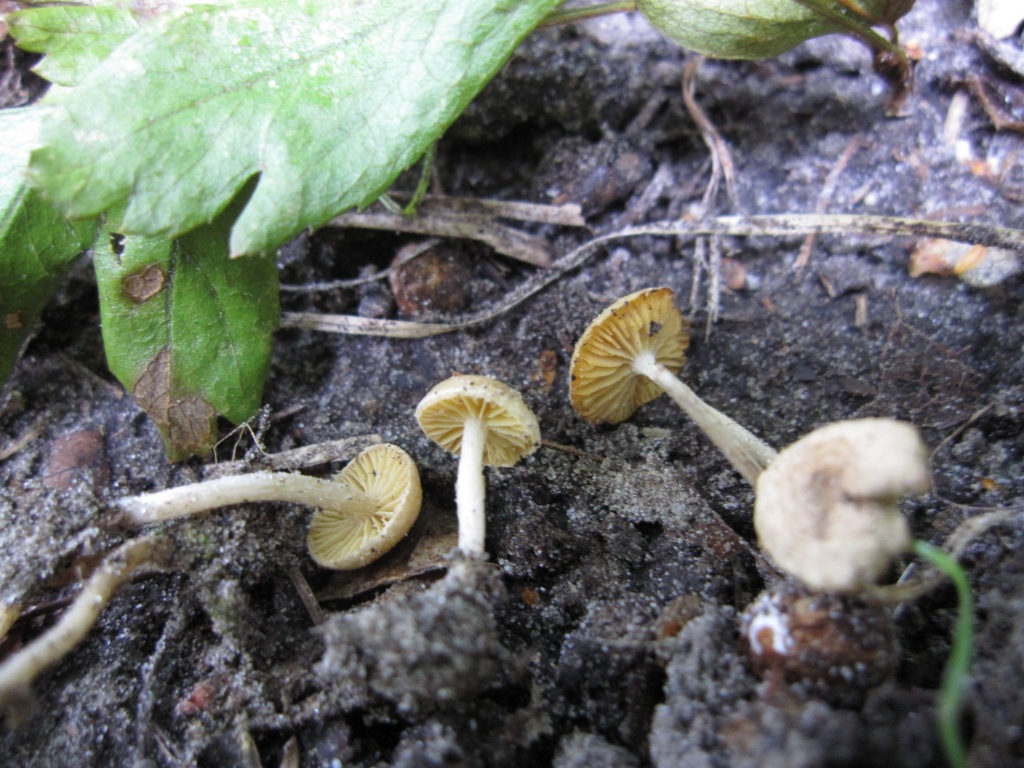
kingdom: Fungi
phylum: Basidiomycota
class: Agaricomycetes
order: Agaricales
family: Tubariaceae
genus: Tubaria
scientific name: Tubaria dispersa
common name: tjørne-fnughat
